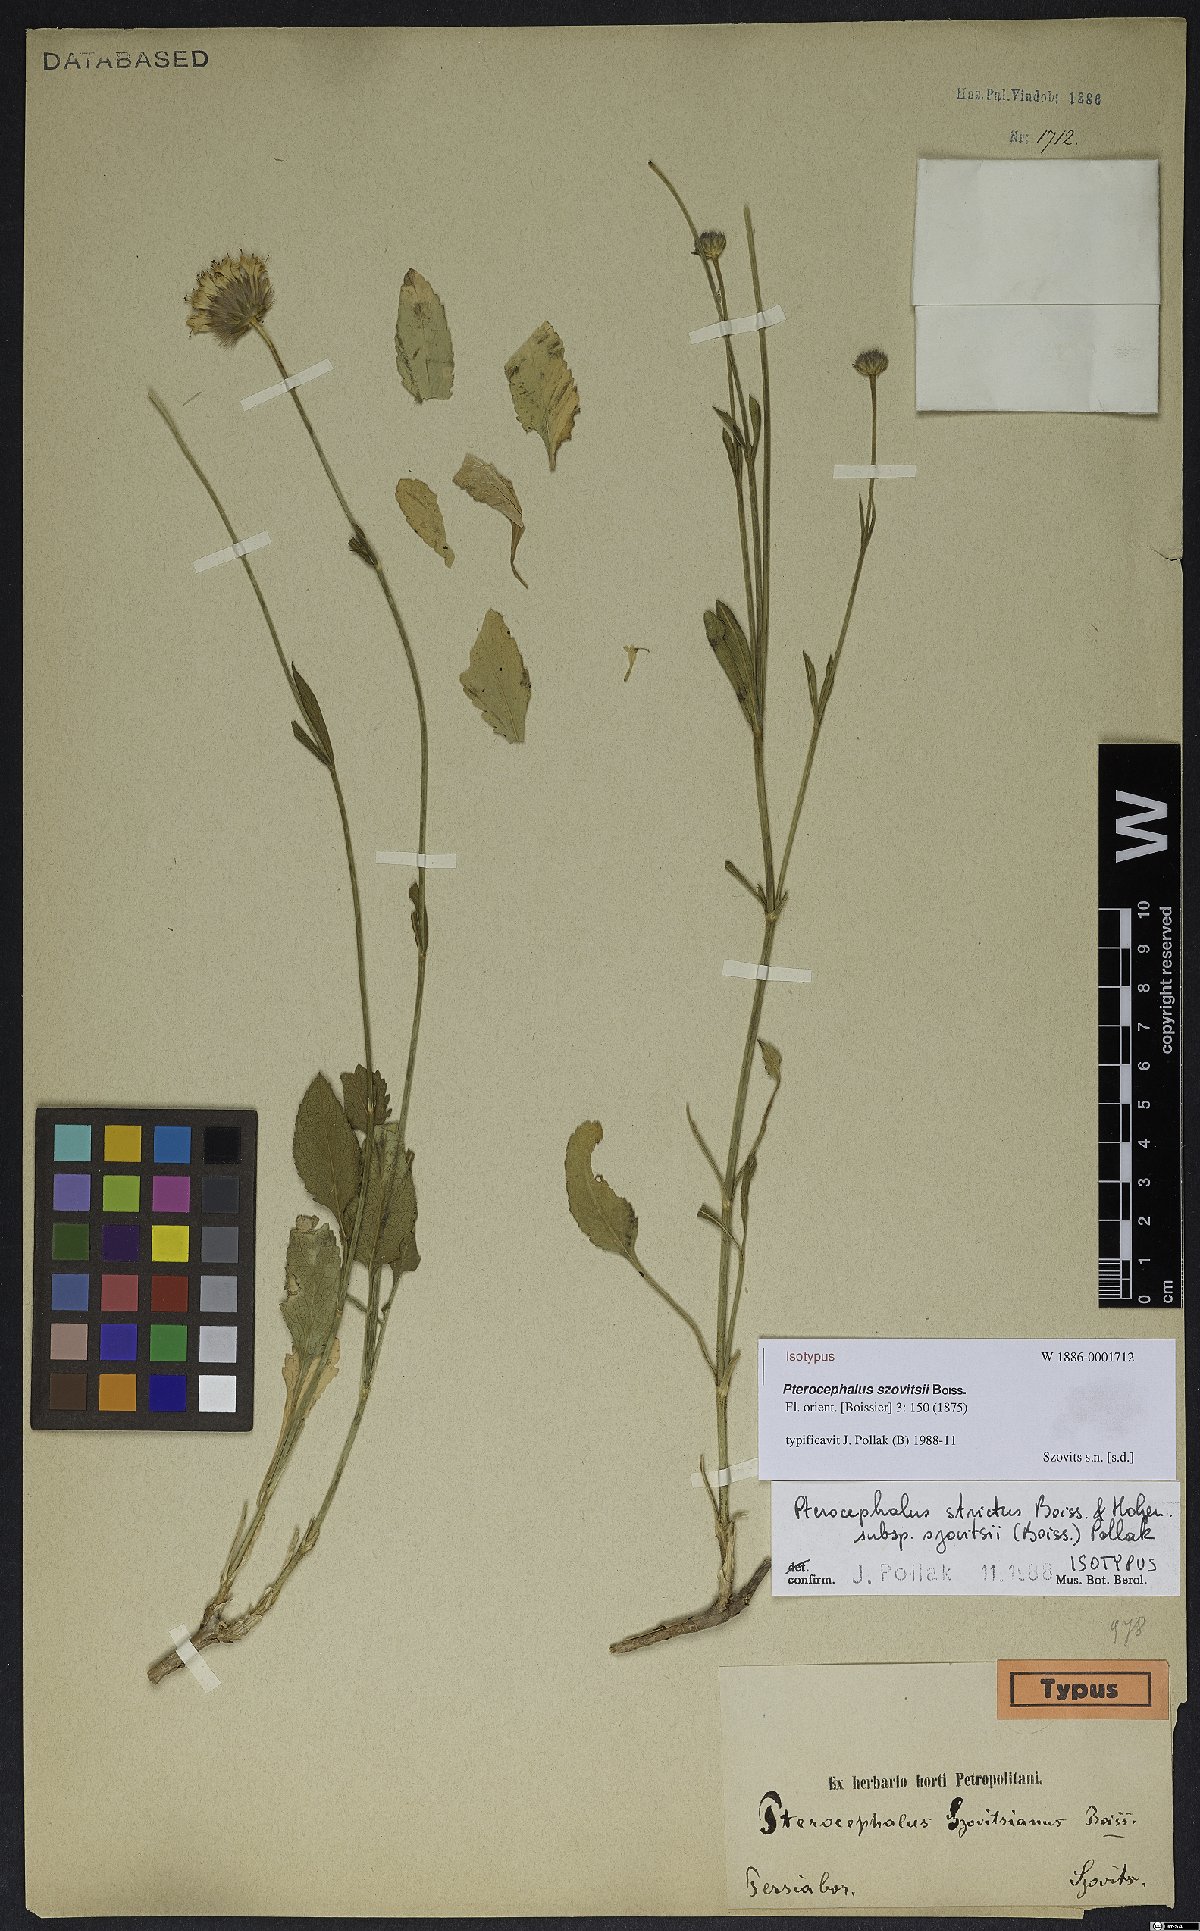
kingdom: Plantae
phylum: Tracheophyta
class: Magnoliopsida
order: Dipsacales
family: Caprifoliaceae
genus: Pterocephalus
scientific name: Pterocephalus szovitsii
